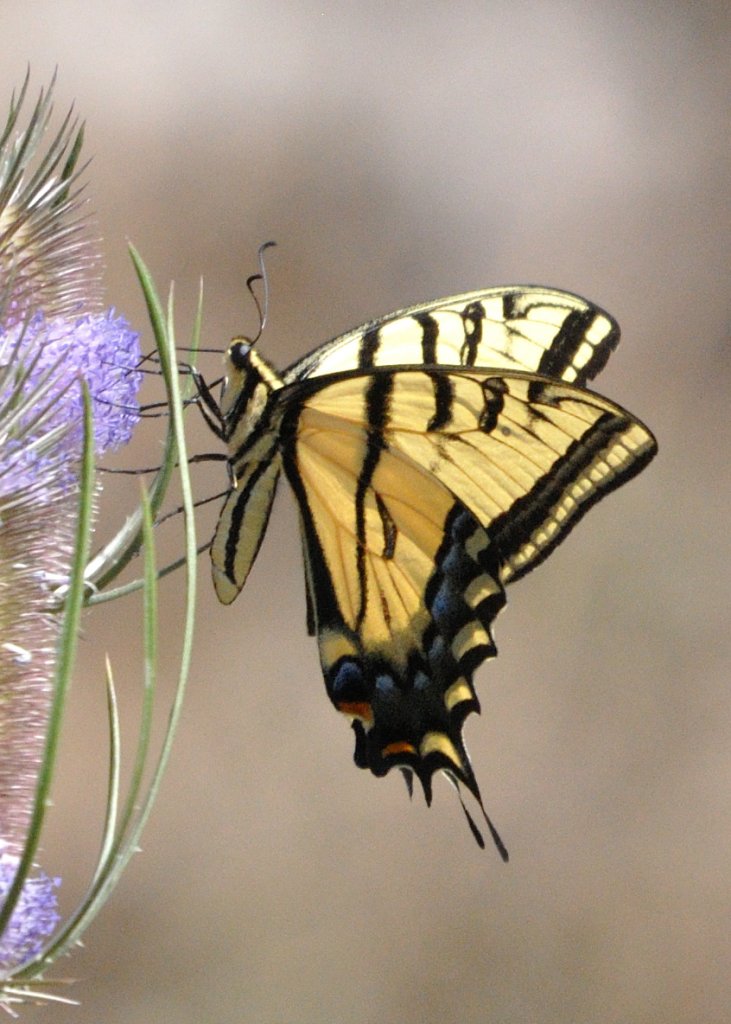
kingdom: Animalia
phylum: Arthropoda
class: Insecta
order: Lepidoptera
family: Papilionidae
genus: Papilio
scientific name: Papilio multicaudata
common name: Two-tailed Swallowtail
